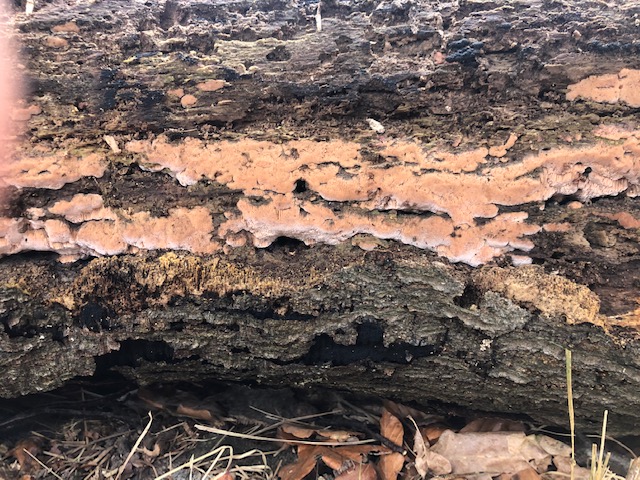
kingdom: Fungi
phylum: Basidiomycota
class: Agaricomycetes
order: Polyporales
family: Meruliaceae
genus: Mycoacia
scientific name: Mycoacia gilvescens
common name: rosa pastelporesvamp
